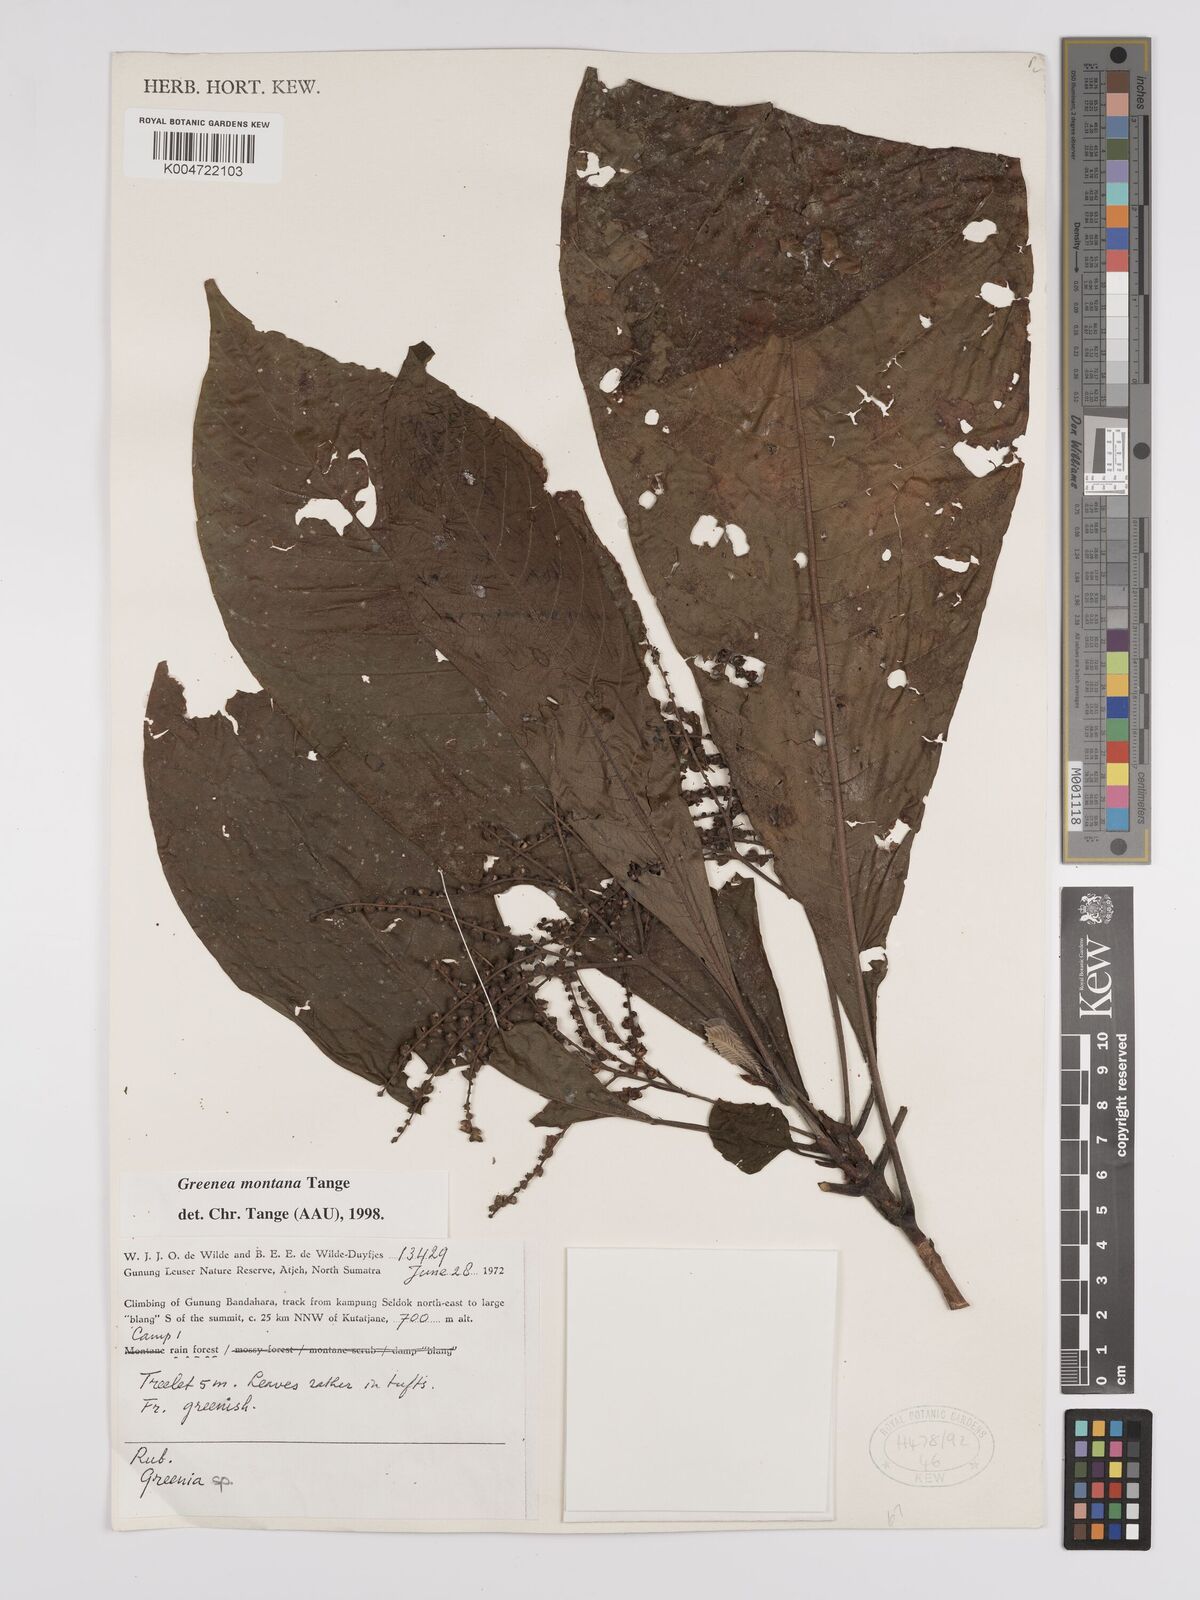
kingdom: Plantae
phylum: Tracheophyta
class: Magnoliopsida
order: Gentianales
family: Rubiaceae
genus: Greenea
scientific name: Greenea montana
